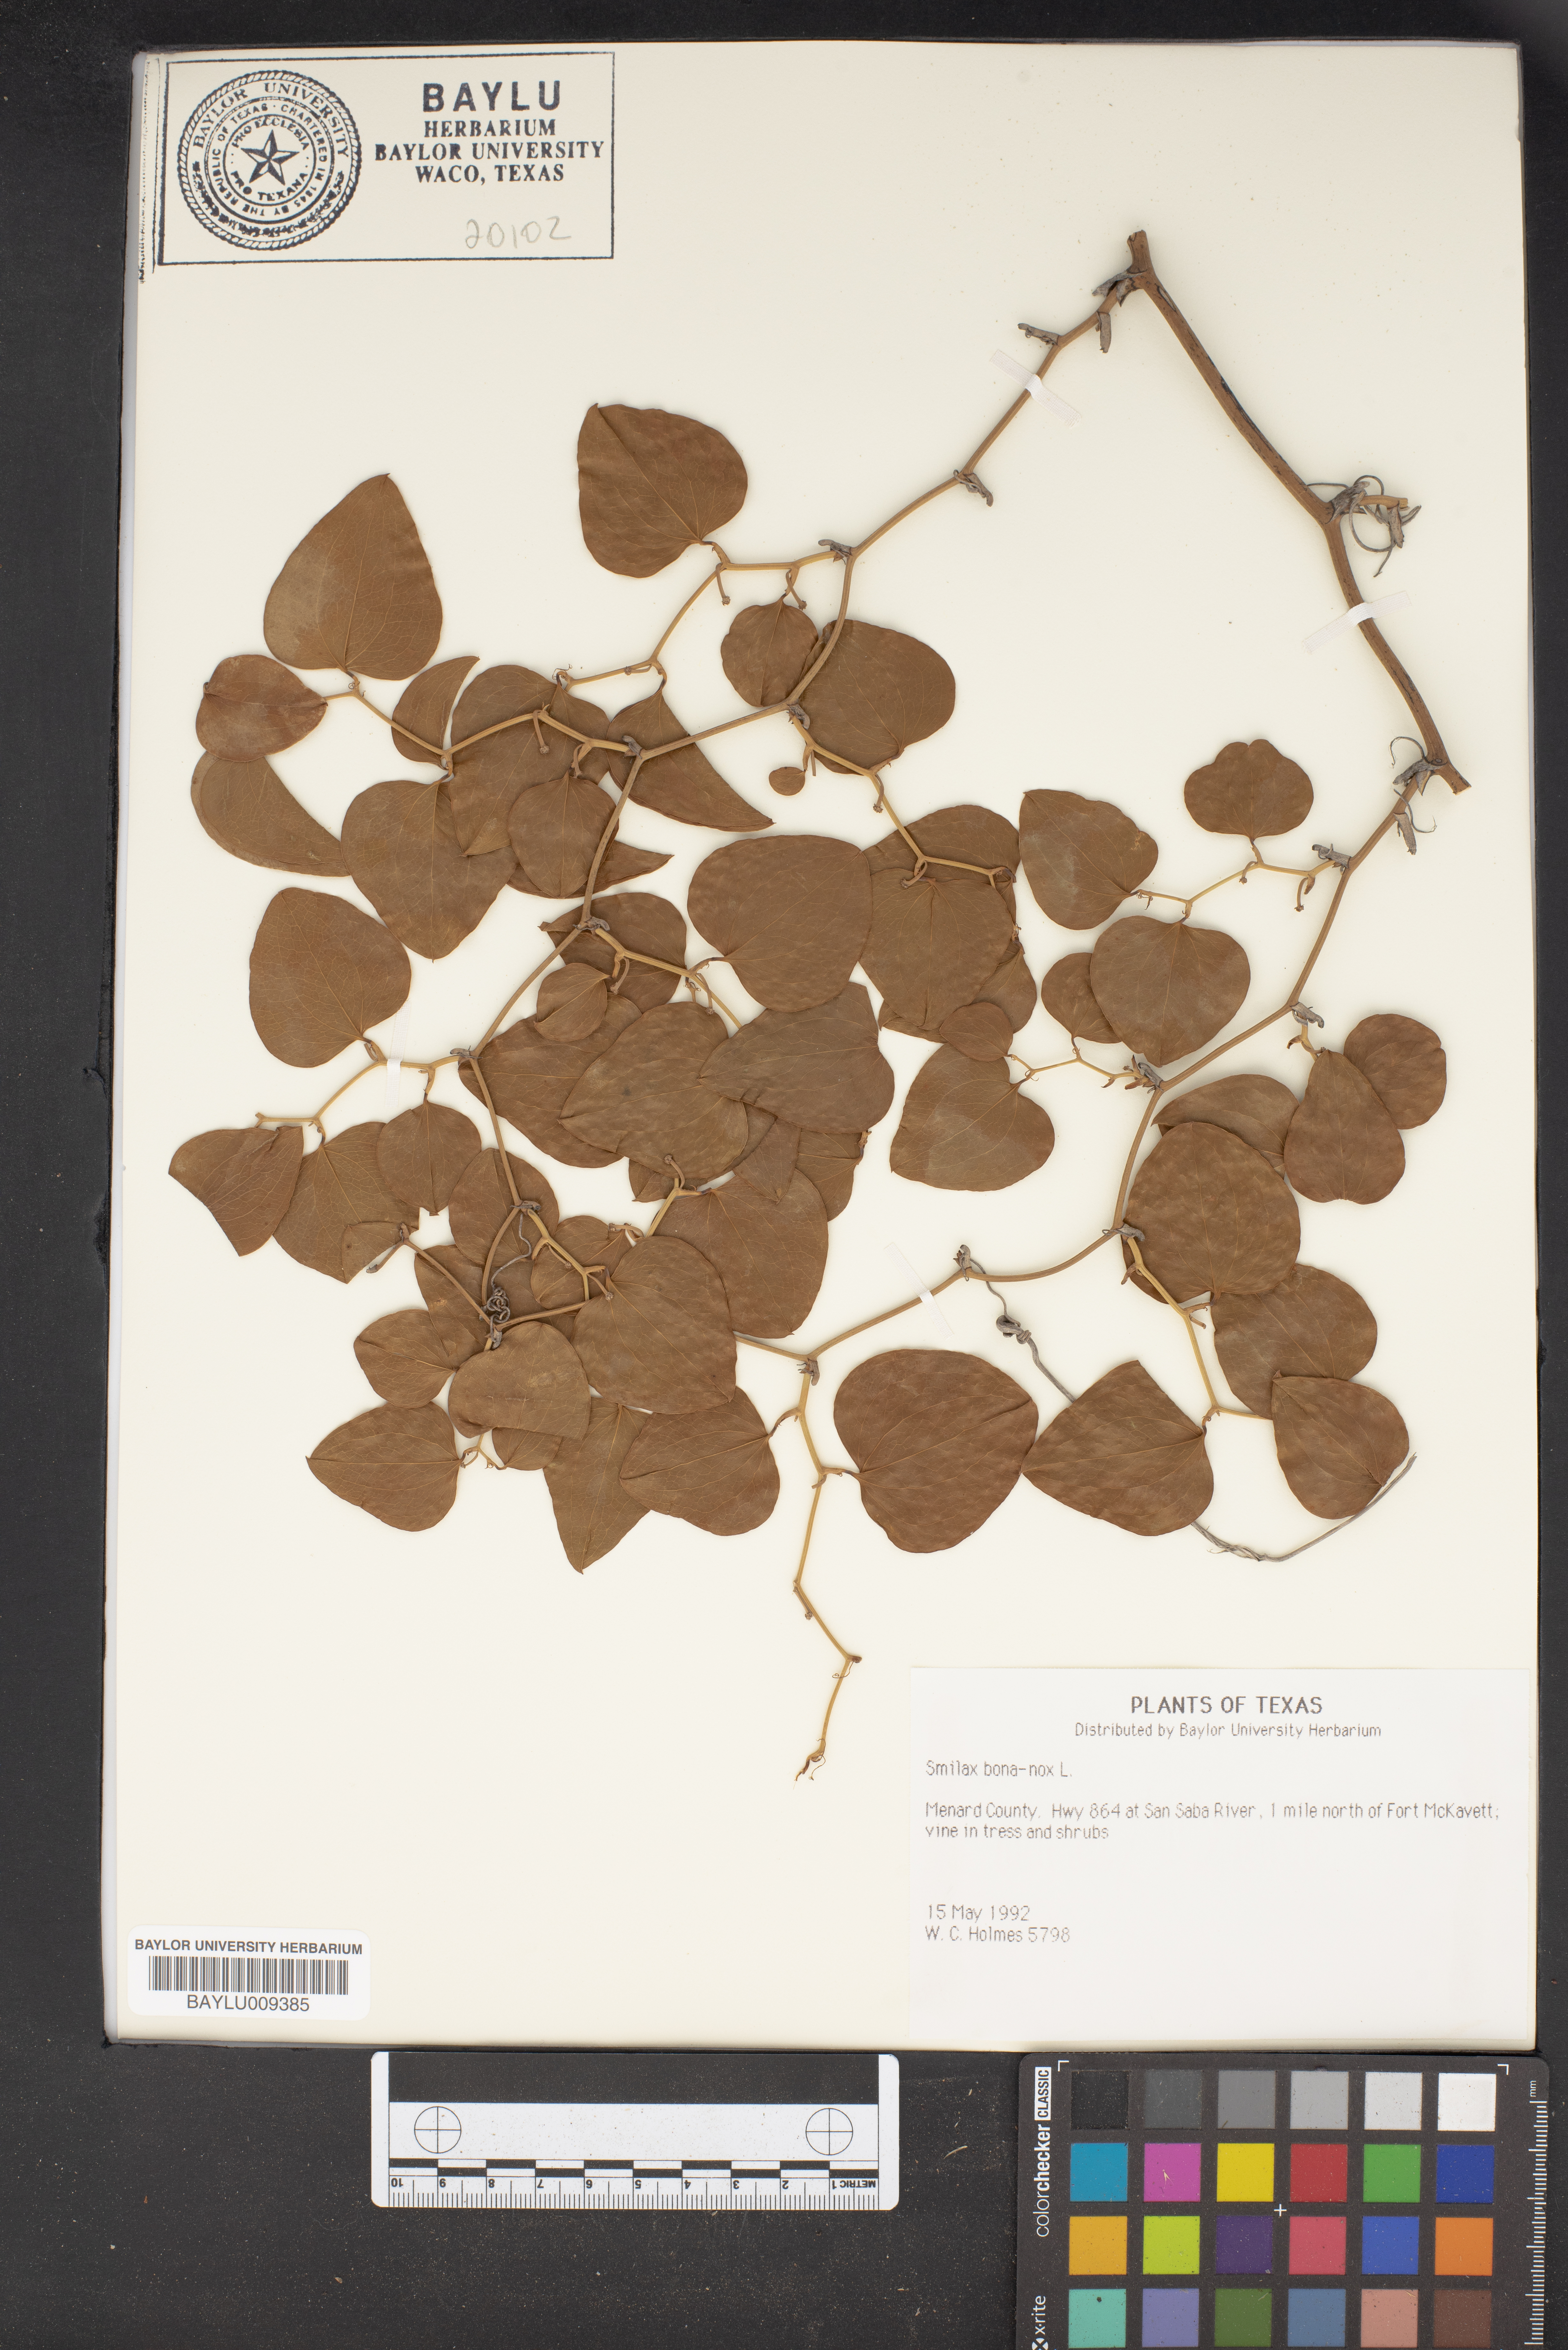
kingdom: Plantae
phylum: Tracheophyta
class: Liliopsida
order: Liliales
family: Smilacaceae
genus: Smilax
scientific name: Smilax bona-nox
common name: Catbrier
